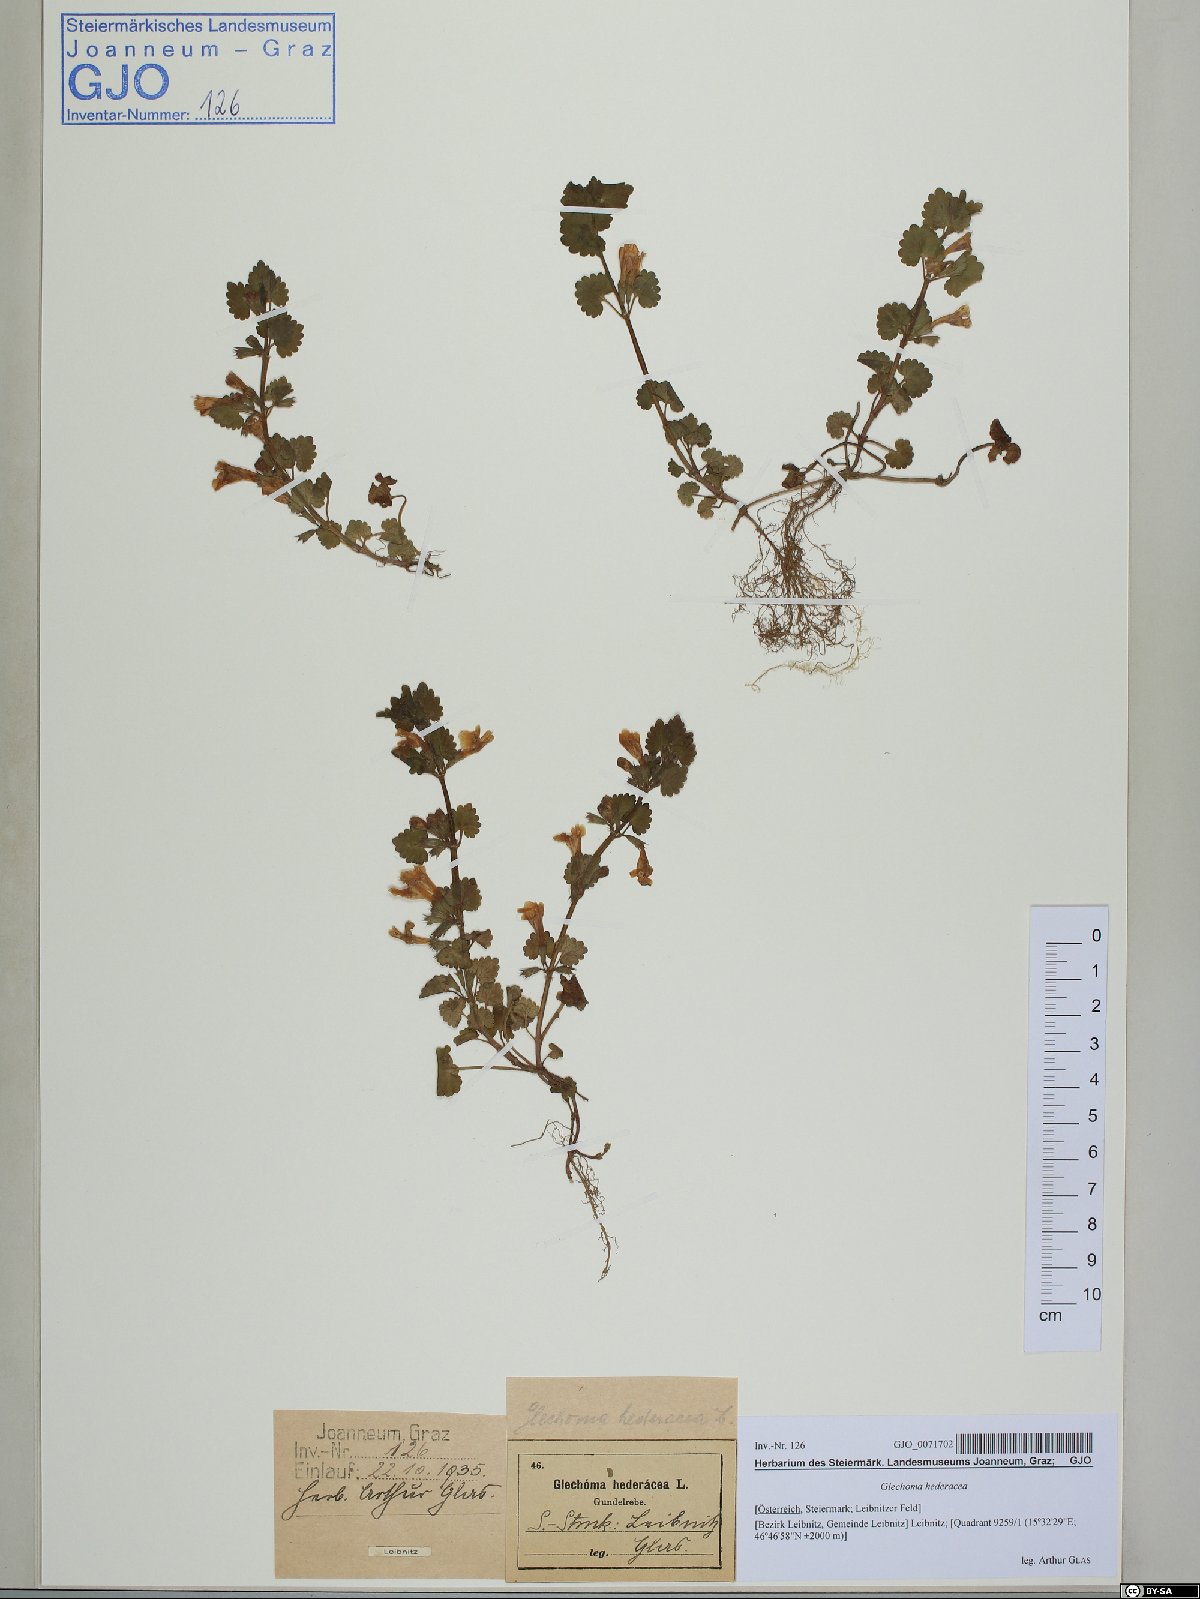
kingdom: Plantae
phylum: Tracheophyta
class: Magnoliopsida
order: Lamiales
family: Lamiaceae
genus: Glechoma
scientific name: Glechoma hederacea
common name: Ground ivy
